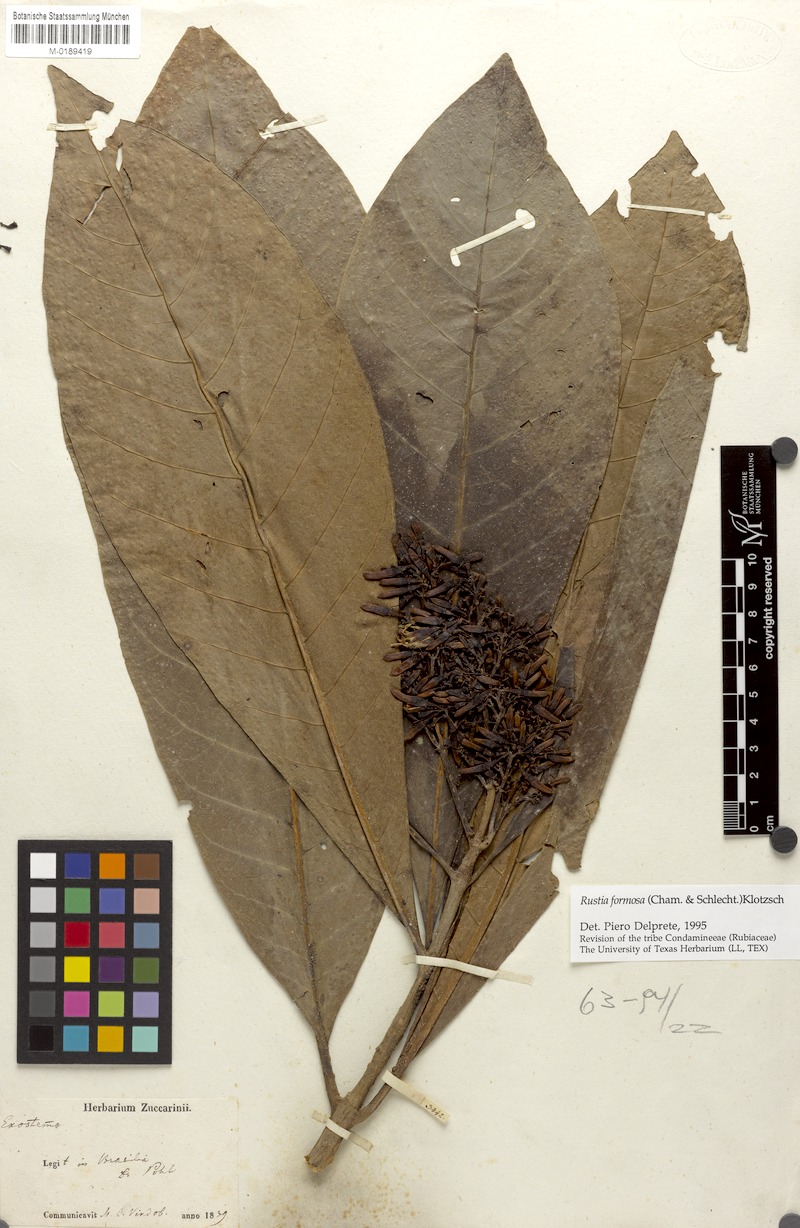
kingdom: Plantae
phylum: Tracheophyta
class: Magnoliopsida
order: Gentianales
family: Rubiaceae
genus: Rustia
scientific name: Rustia formosa
